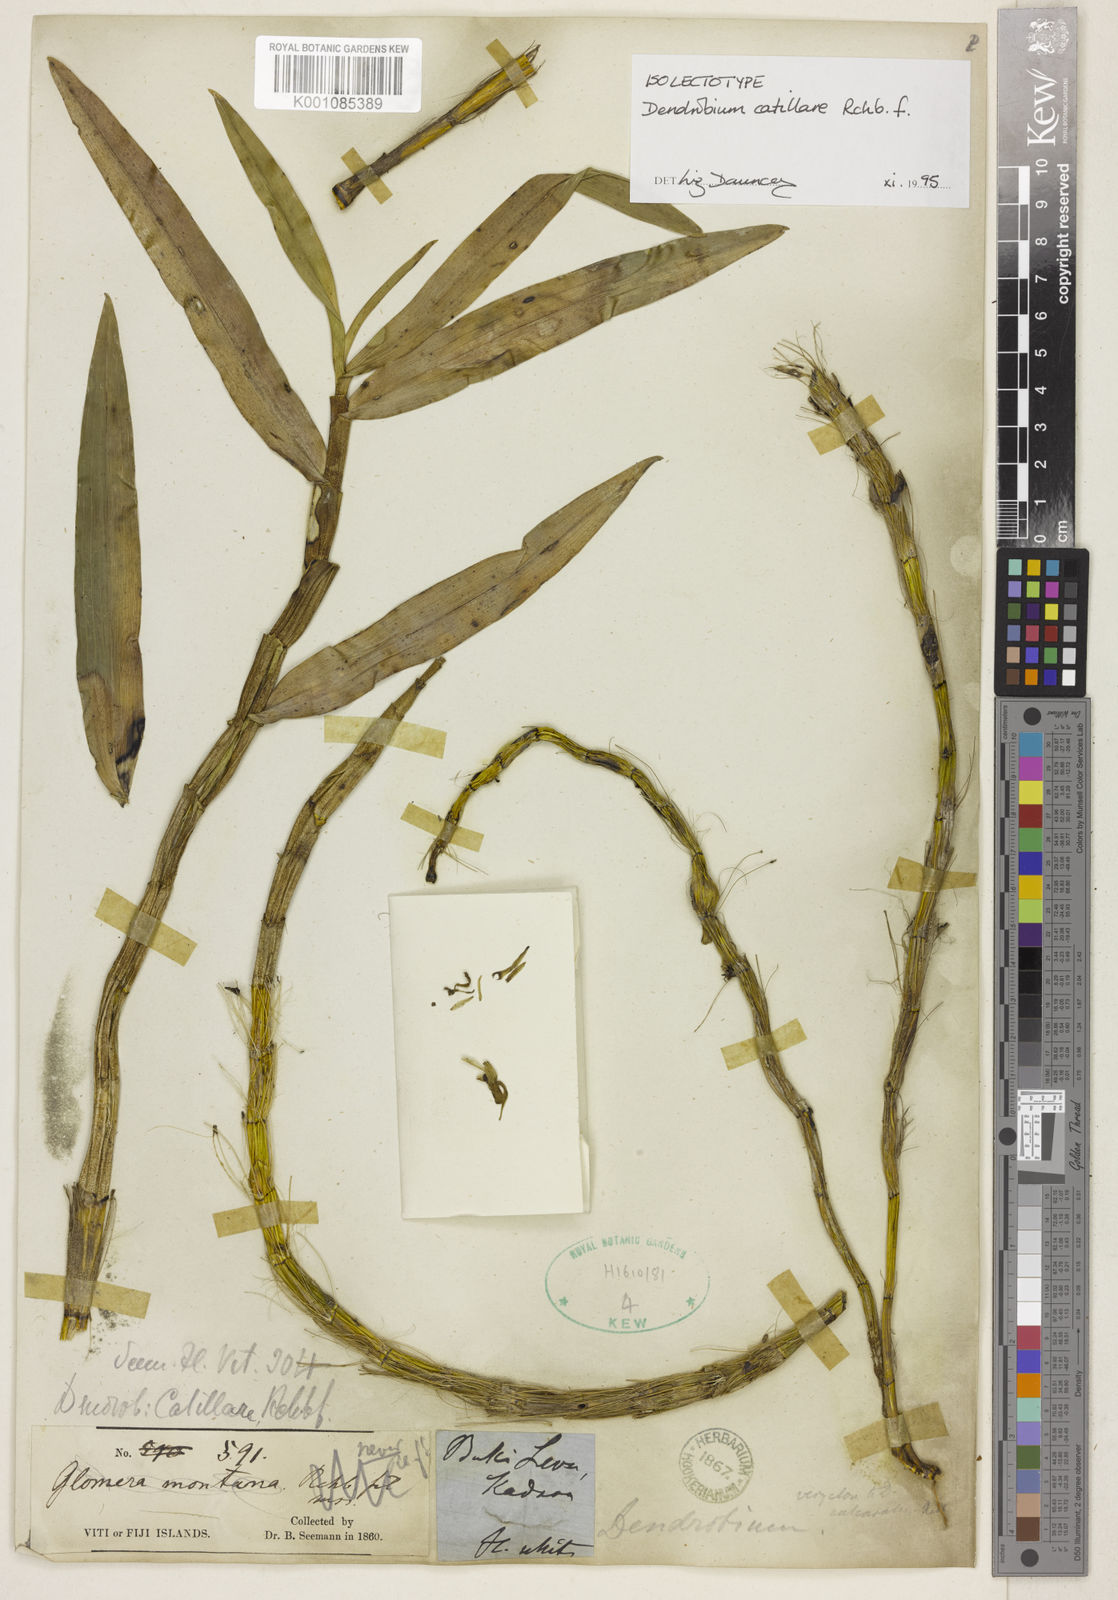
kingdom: Plantae
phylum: Tracheophyta
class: Liliopsida
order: Asparagales
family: Orchidaceae
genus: Dendrobium
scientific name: Dendrobium catillare
